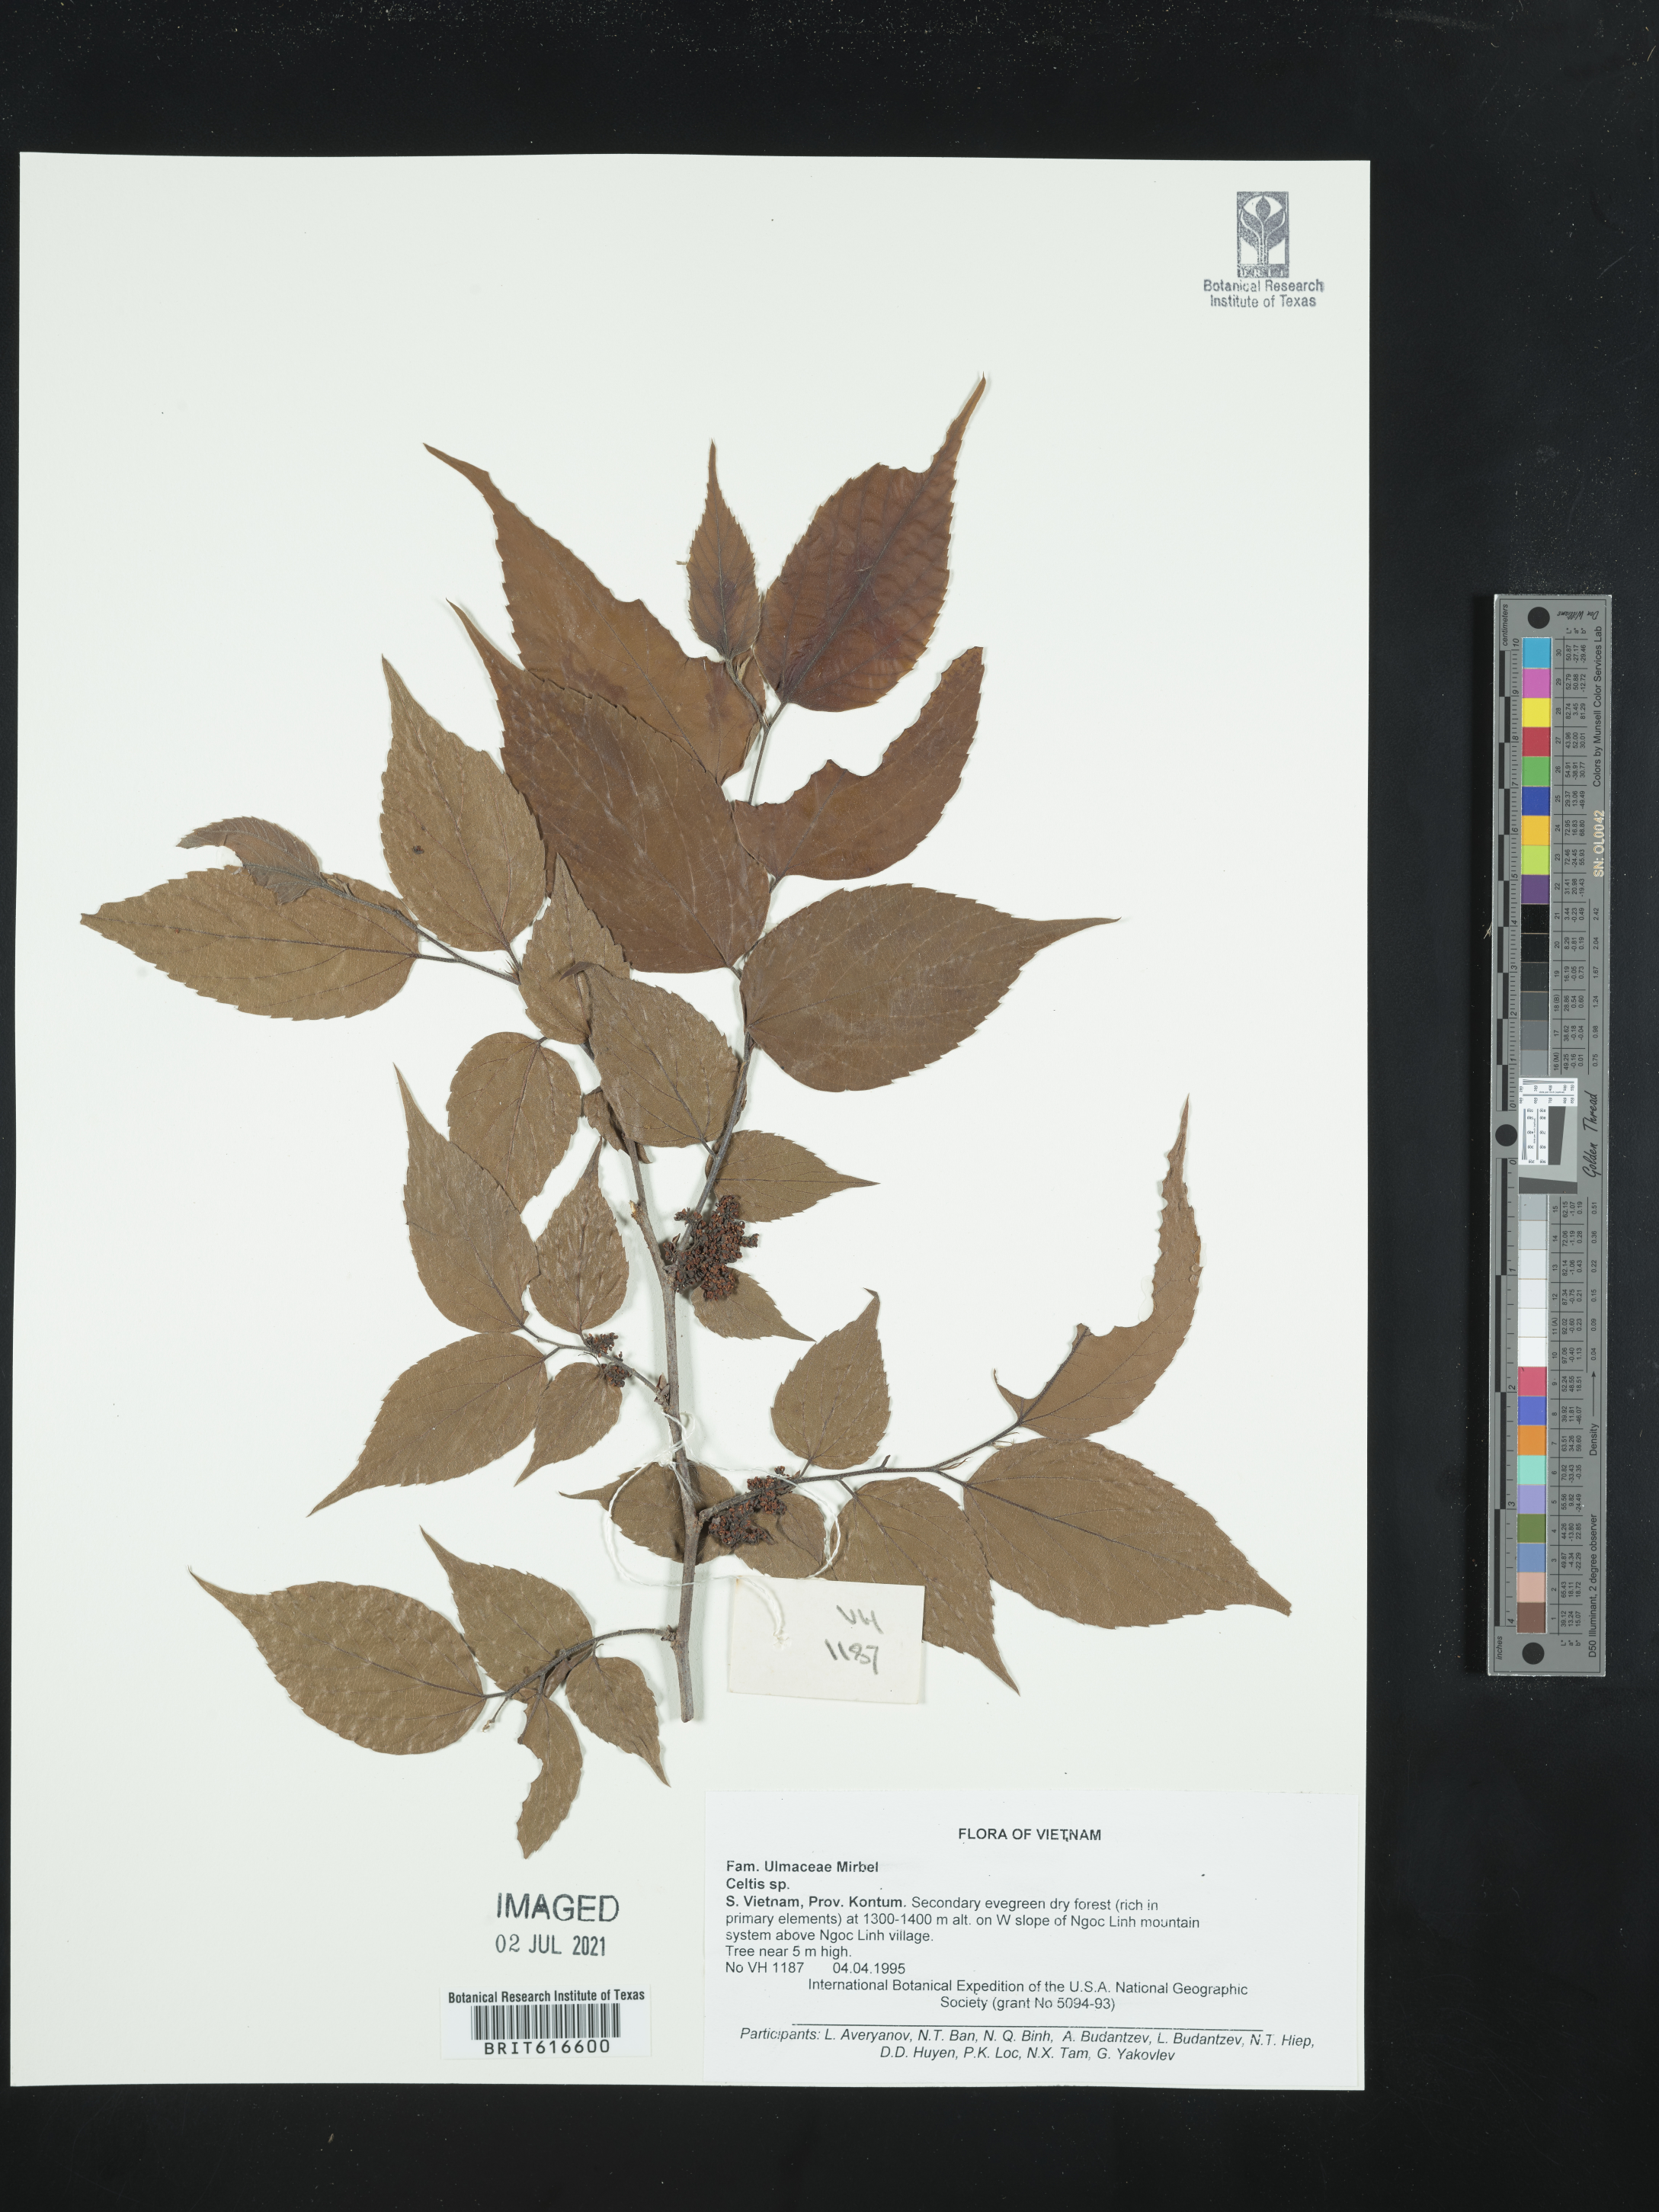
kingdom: Plantae
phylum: Tracheophyta
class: Magnoliopsida
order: Rosales
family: Cannabaceae
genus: Celtis
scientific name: Celtis
